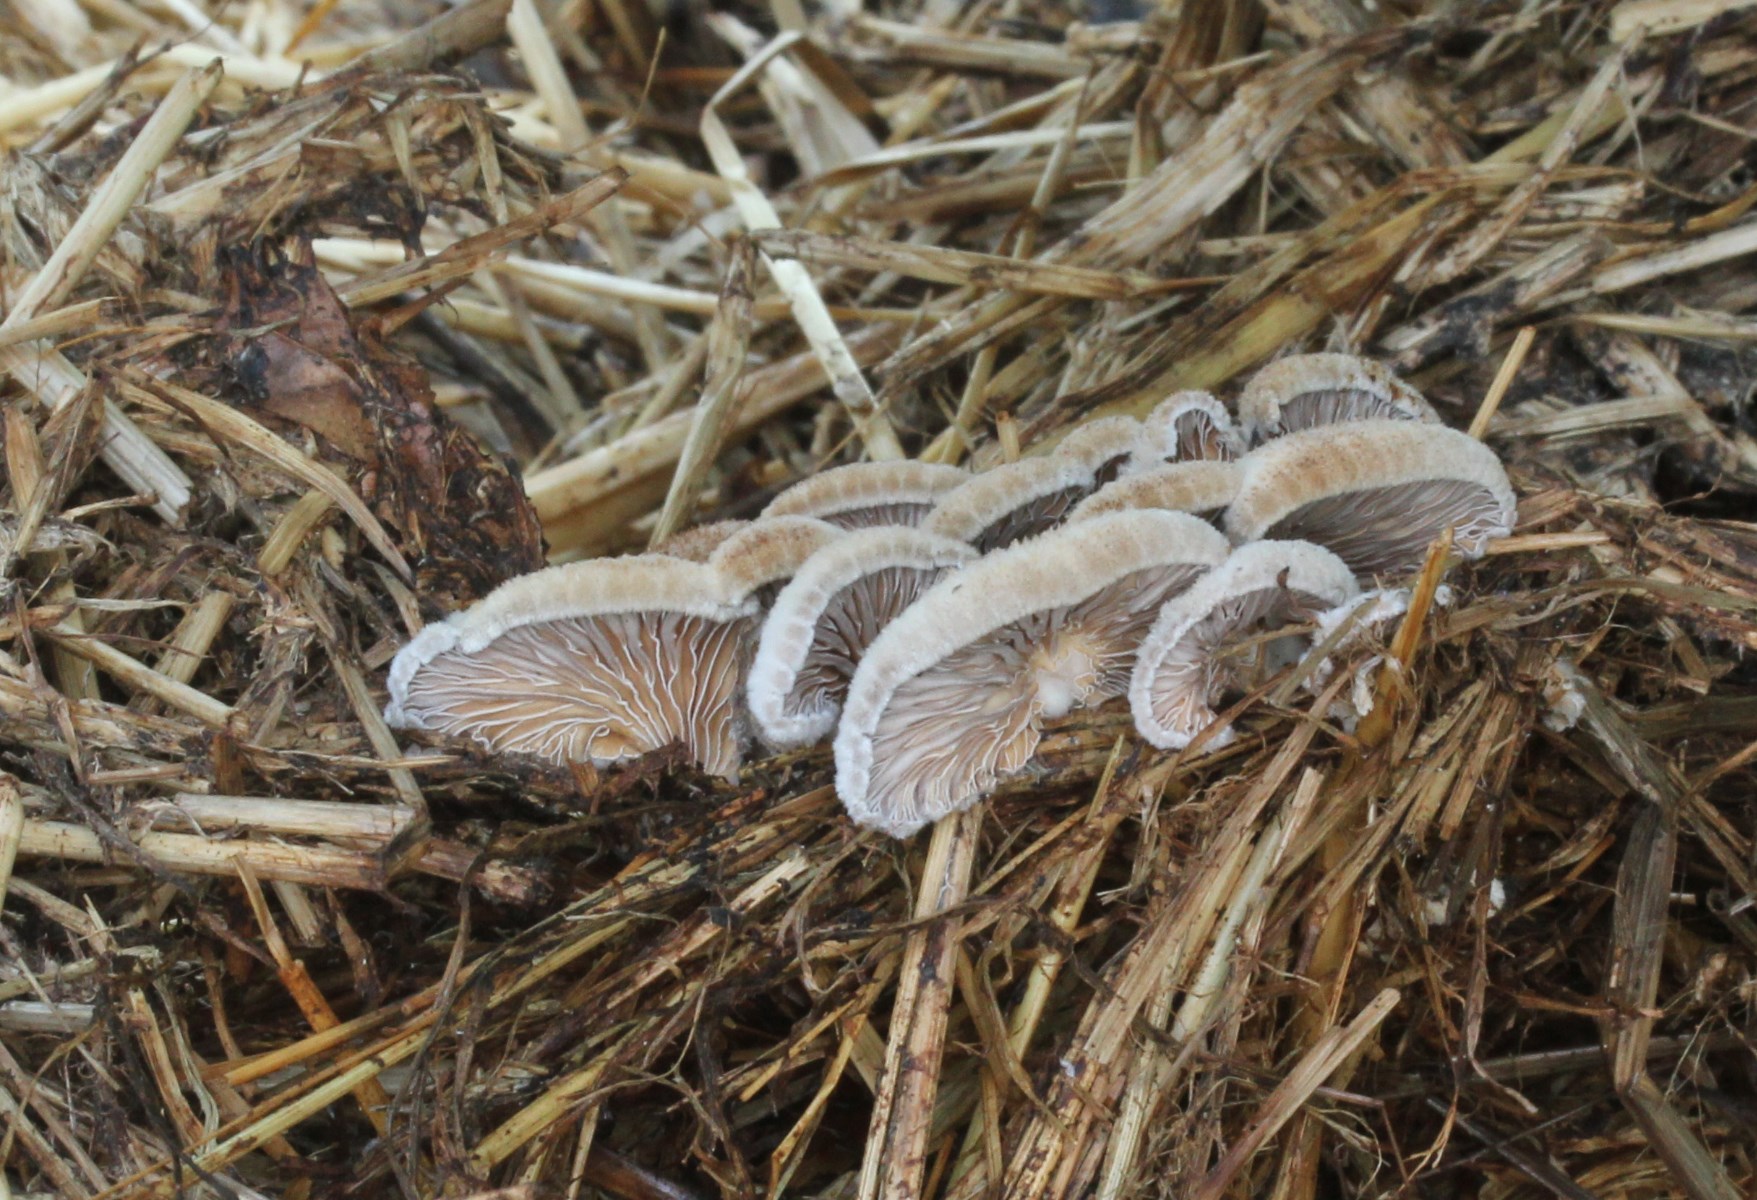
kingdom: Fungi
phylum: Basidiomycota
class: Agaricomycetes
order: Agaricales
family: Schizophyllaceae
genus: Schizophyllum
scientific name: Schizophyllum commune
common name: kløvblad
